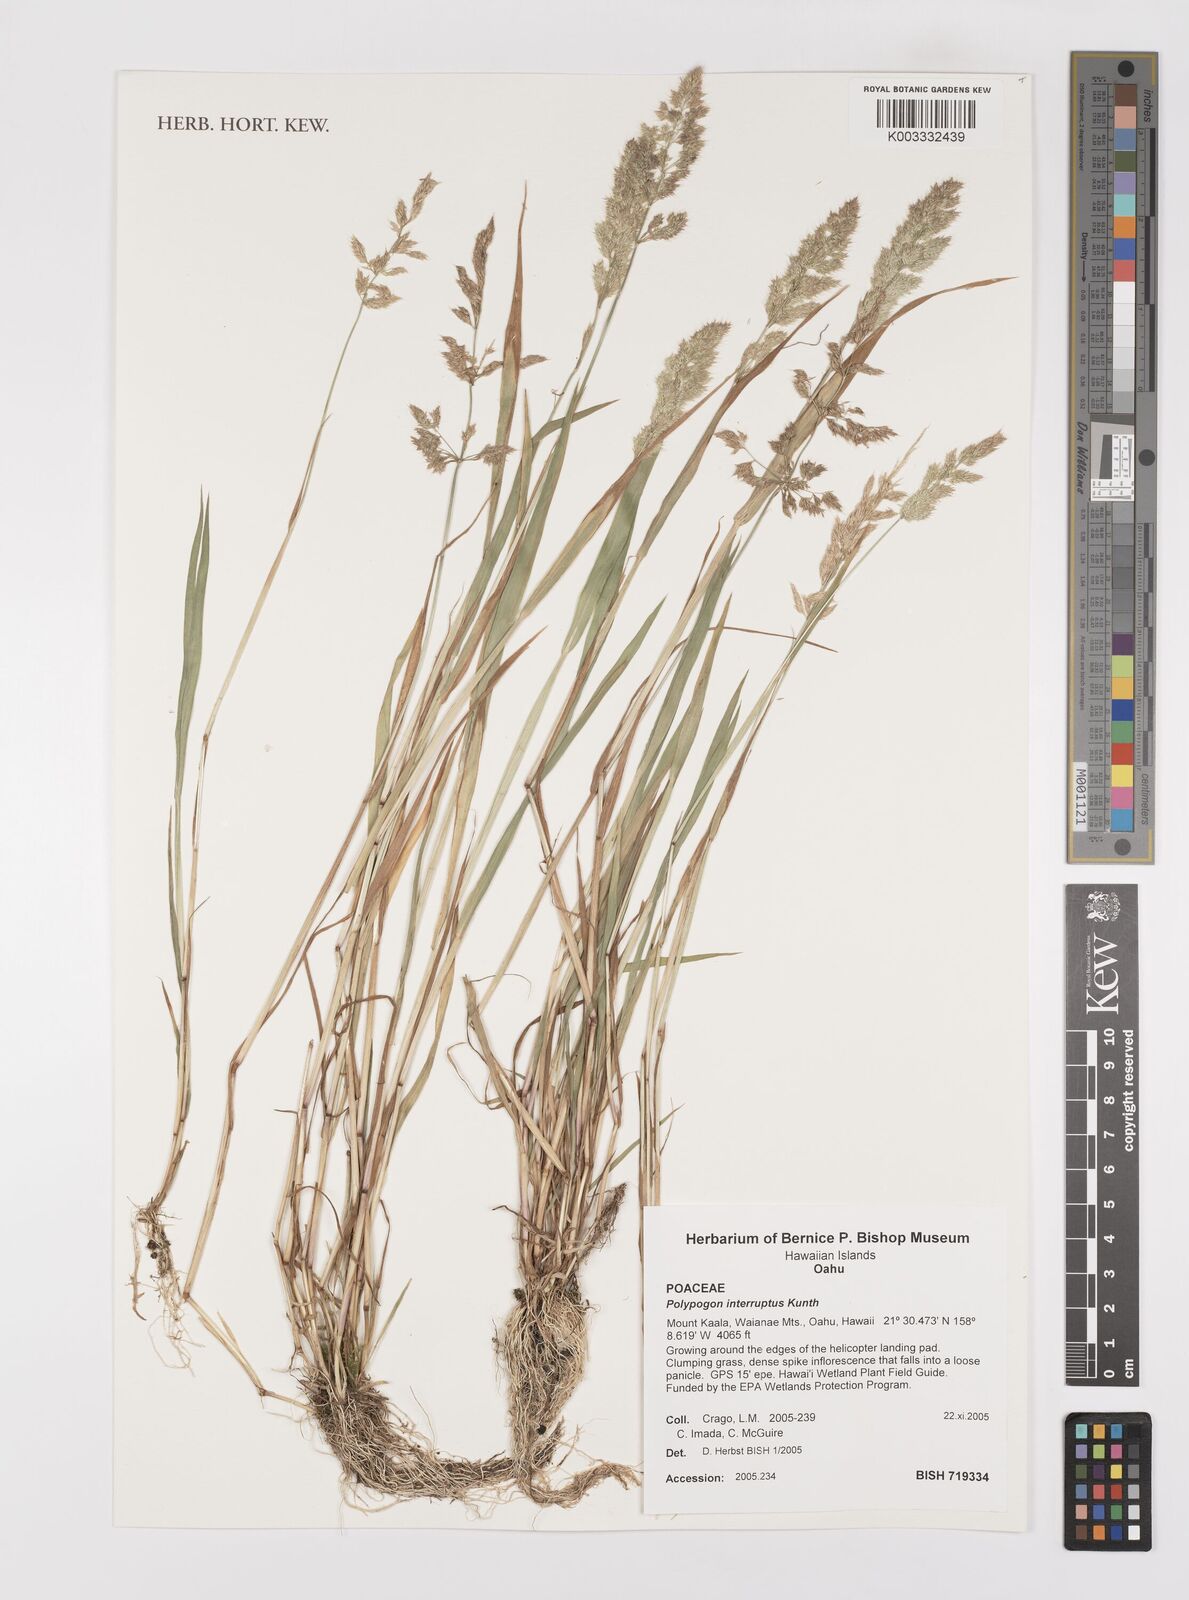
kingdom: Plantae
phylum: Tracheophyta
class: Liliopsida
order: Poales
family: Poaceae
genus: Polypogon
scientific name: Polypogon interruptus
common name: Ditch polypogon
